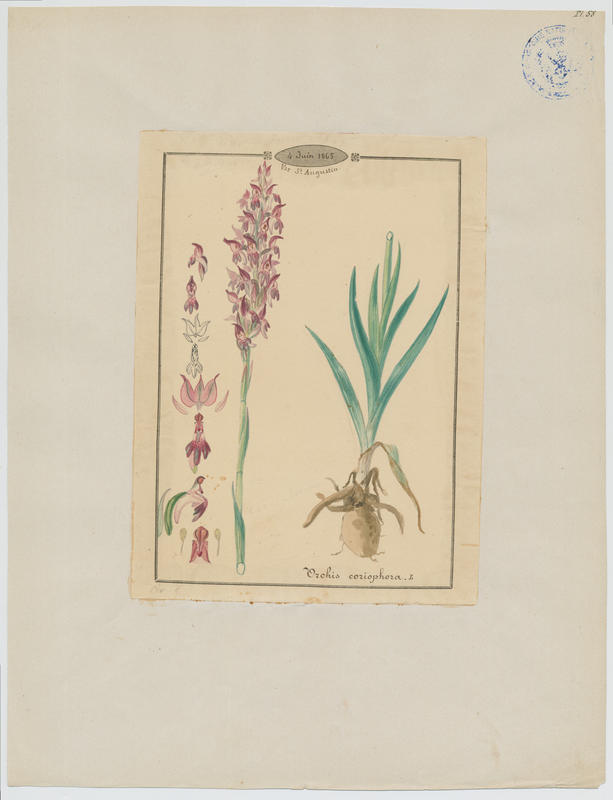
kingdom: Plantae
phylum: Tracheophyta
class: Liliopsida
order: Asparagales
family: Orchidaceae
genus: Anacamptis
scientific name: Anacamptis coriophora
